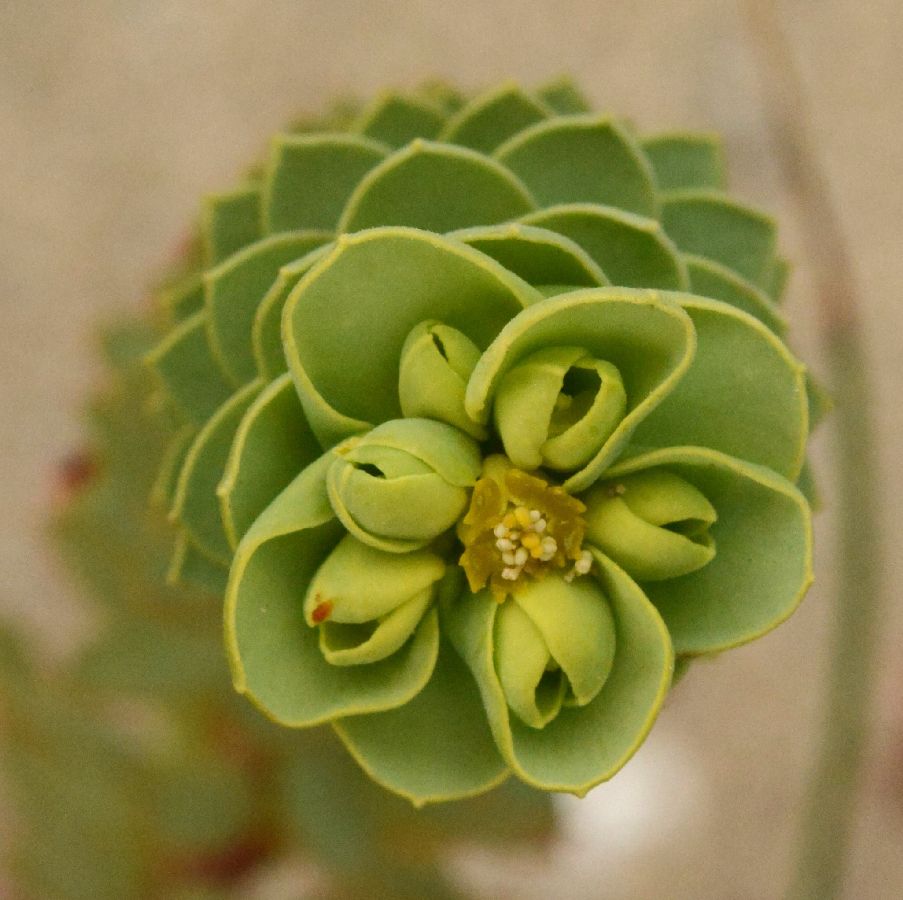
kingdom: Plantae
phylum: Tracheophyta
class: Magnoliopsida
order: Malpighiales
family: Euphorbiaceae
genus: Euphorbia
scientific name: Euphorbia paralias
